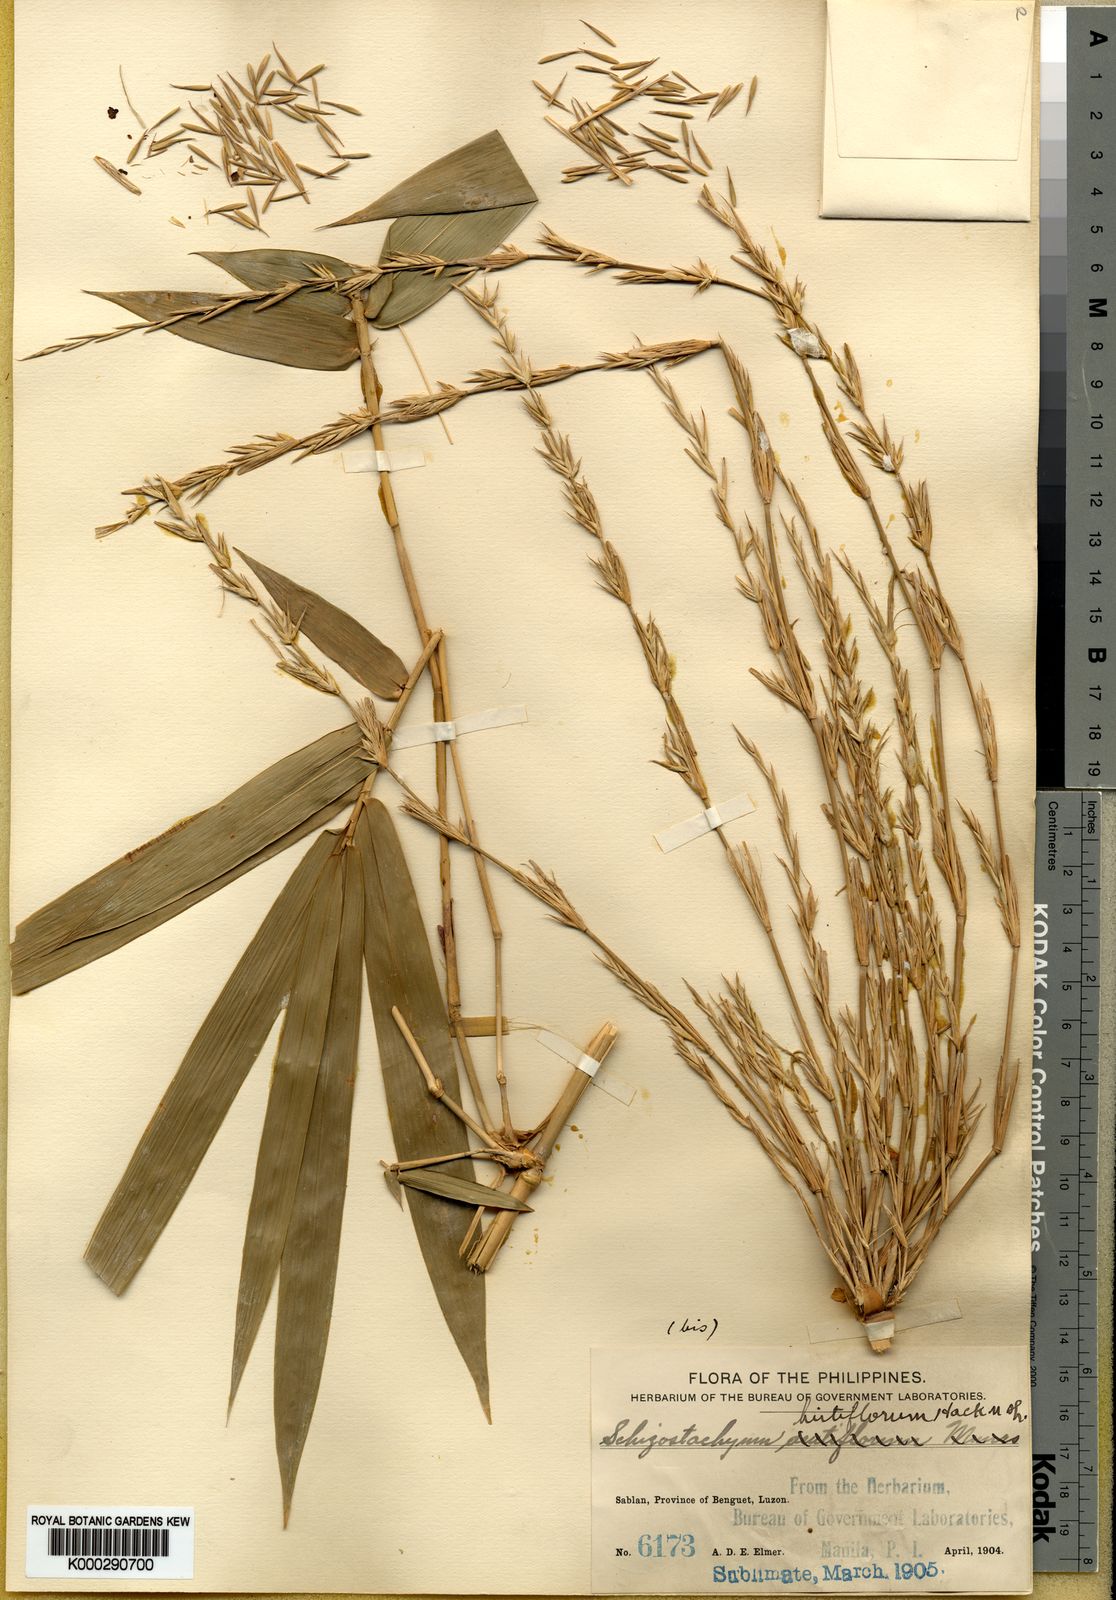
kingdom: Plantae
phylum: Tracheophyta
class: Liliopsida
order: Poales
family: Poaceae
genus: Schizostachyum
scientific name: Schizostachyum lumampao
